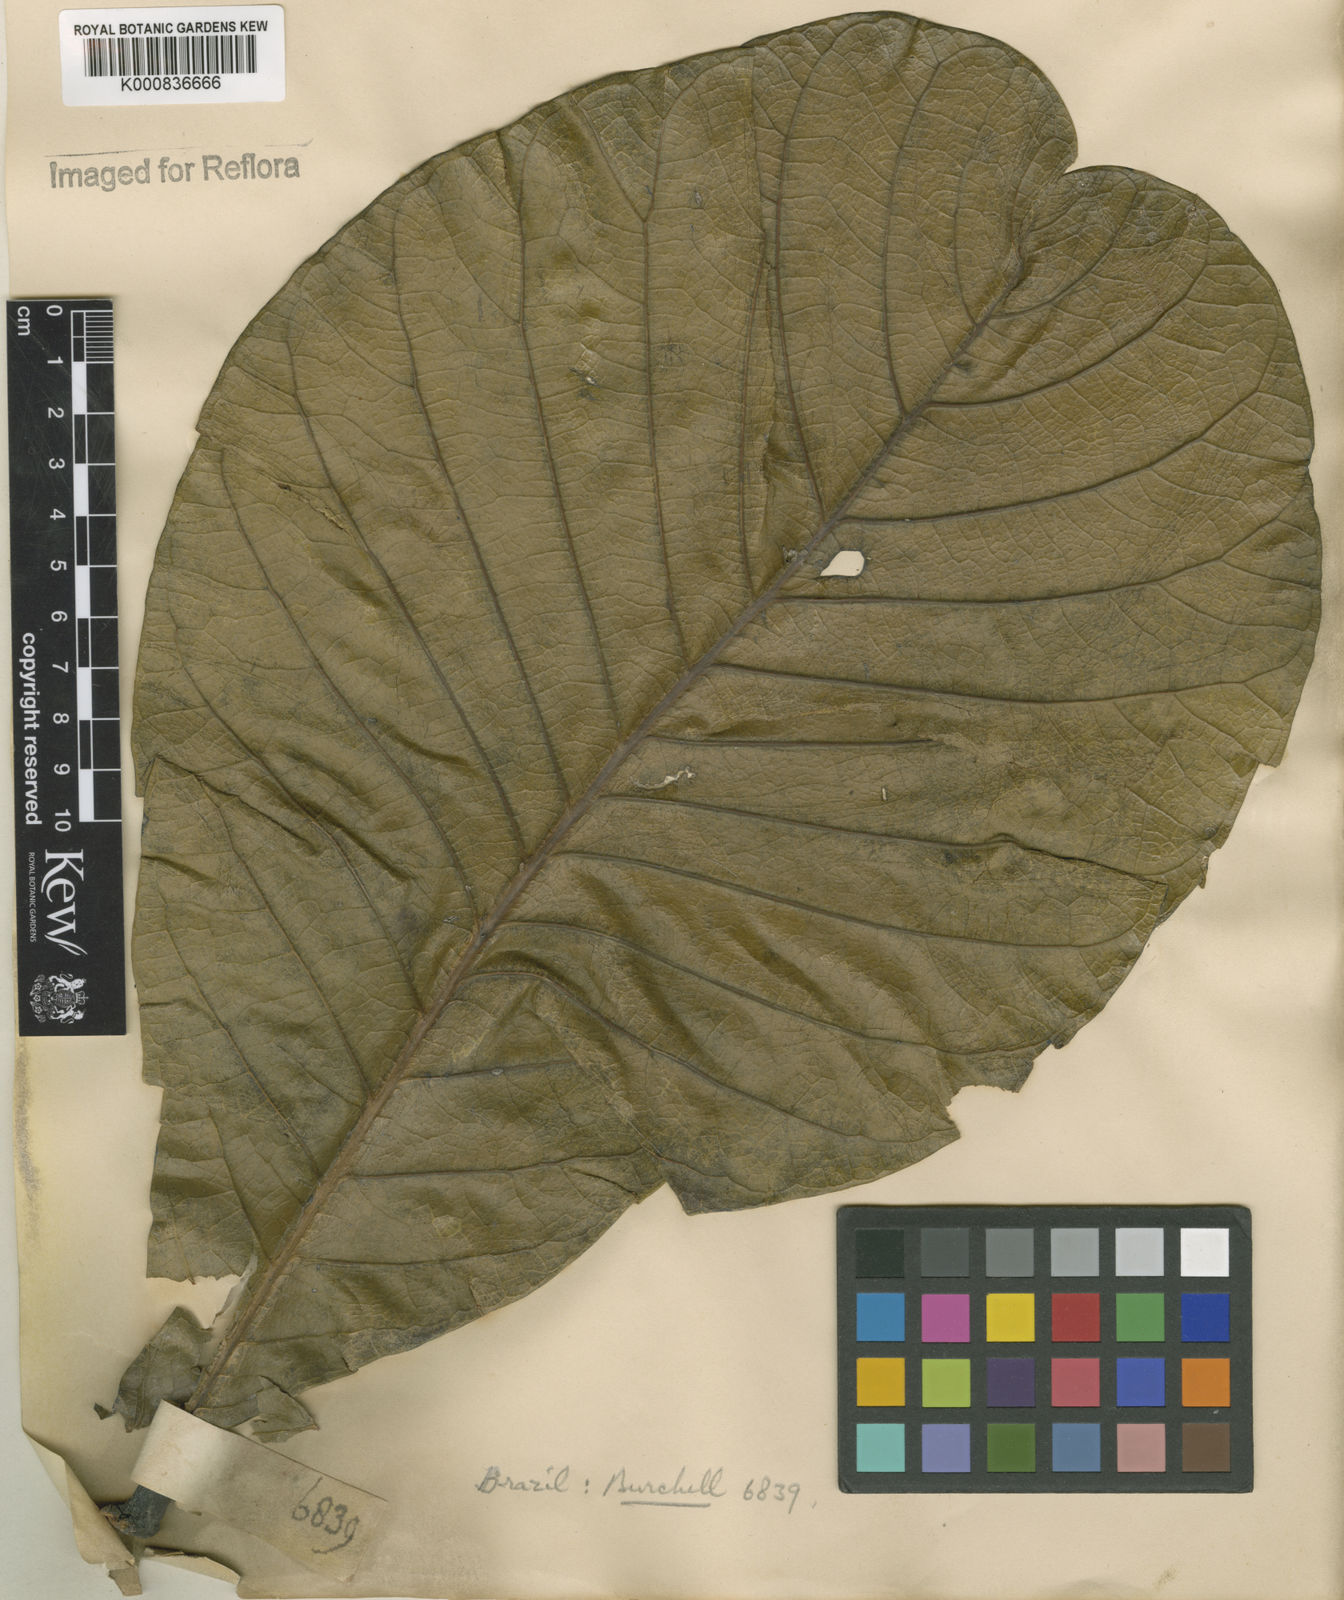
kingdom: Plantae
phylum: Tracheophyta
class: Magnoliopsida
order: Gentianales
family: Rubiaceae
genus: Palicourea
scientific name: Palicourea rigida
